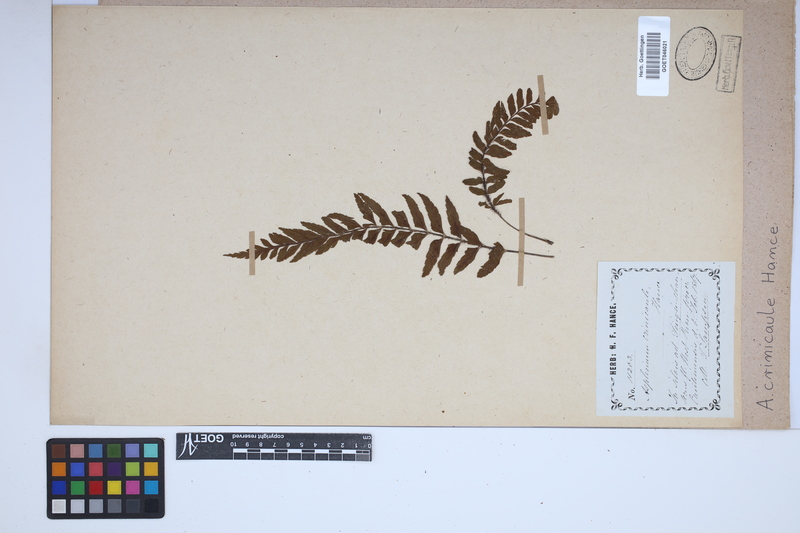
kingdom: Plantae
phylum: Tracheophyta
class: Polypodiopsida
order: Polypodiales
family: Aspleniaceae
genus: Asplenium
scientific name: Asplenium crinicaule
